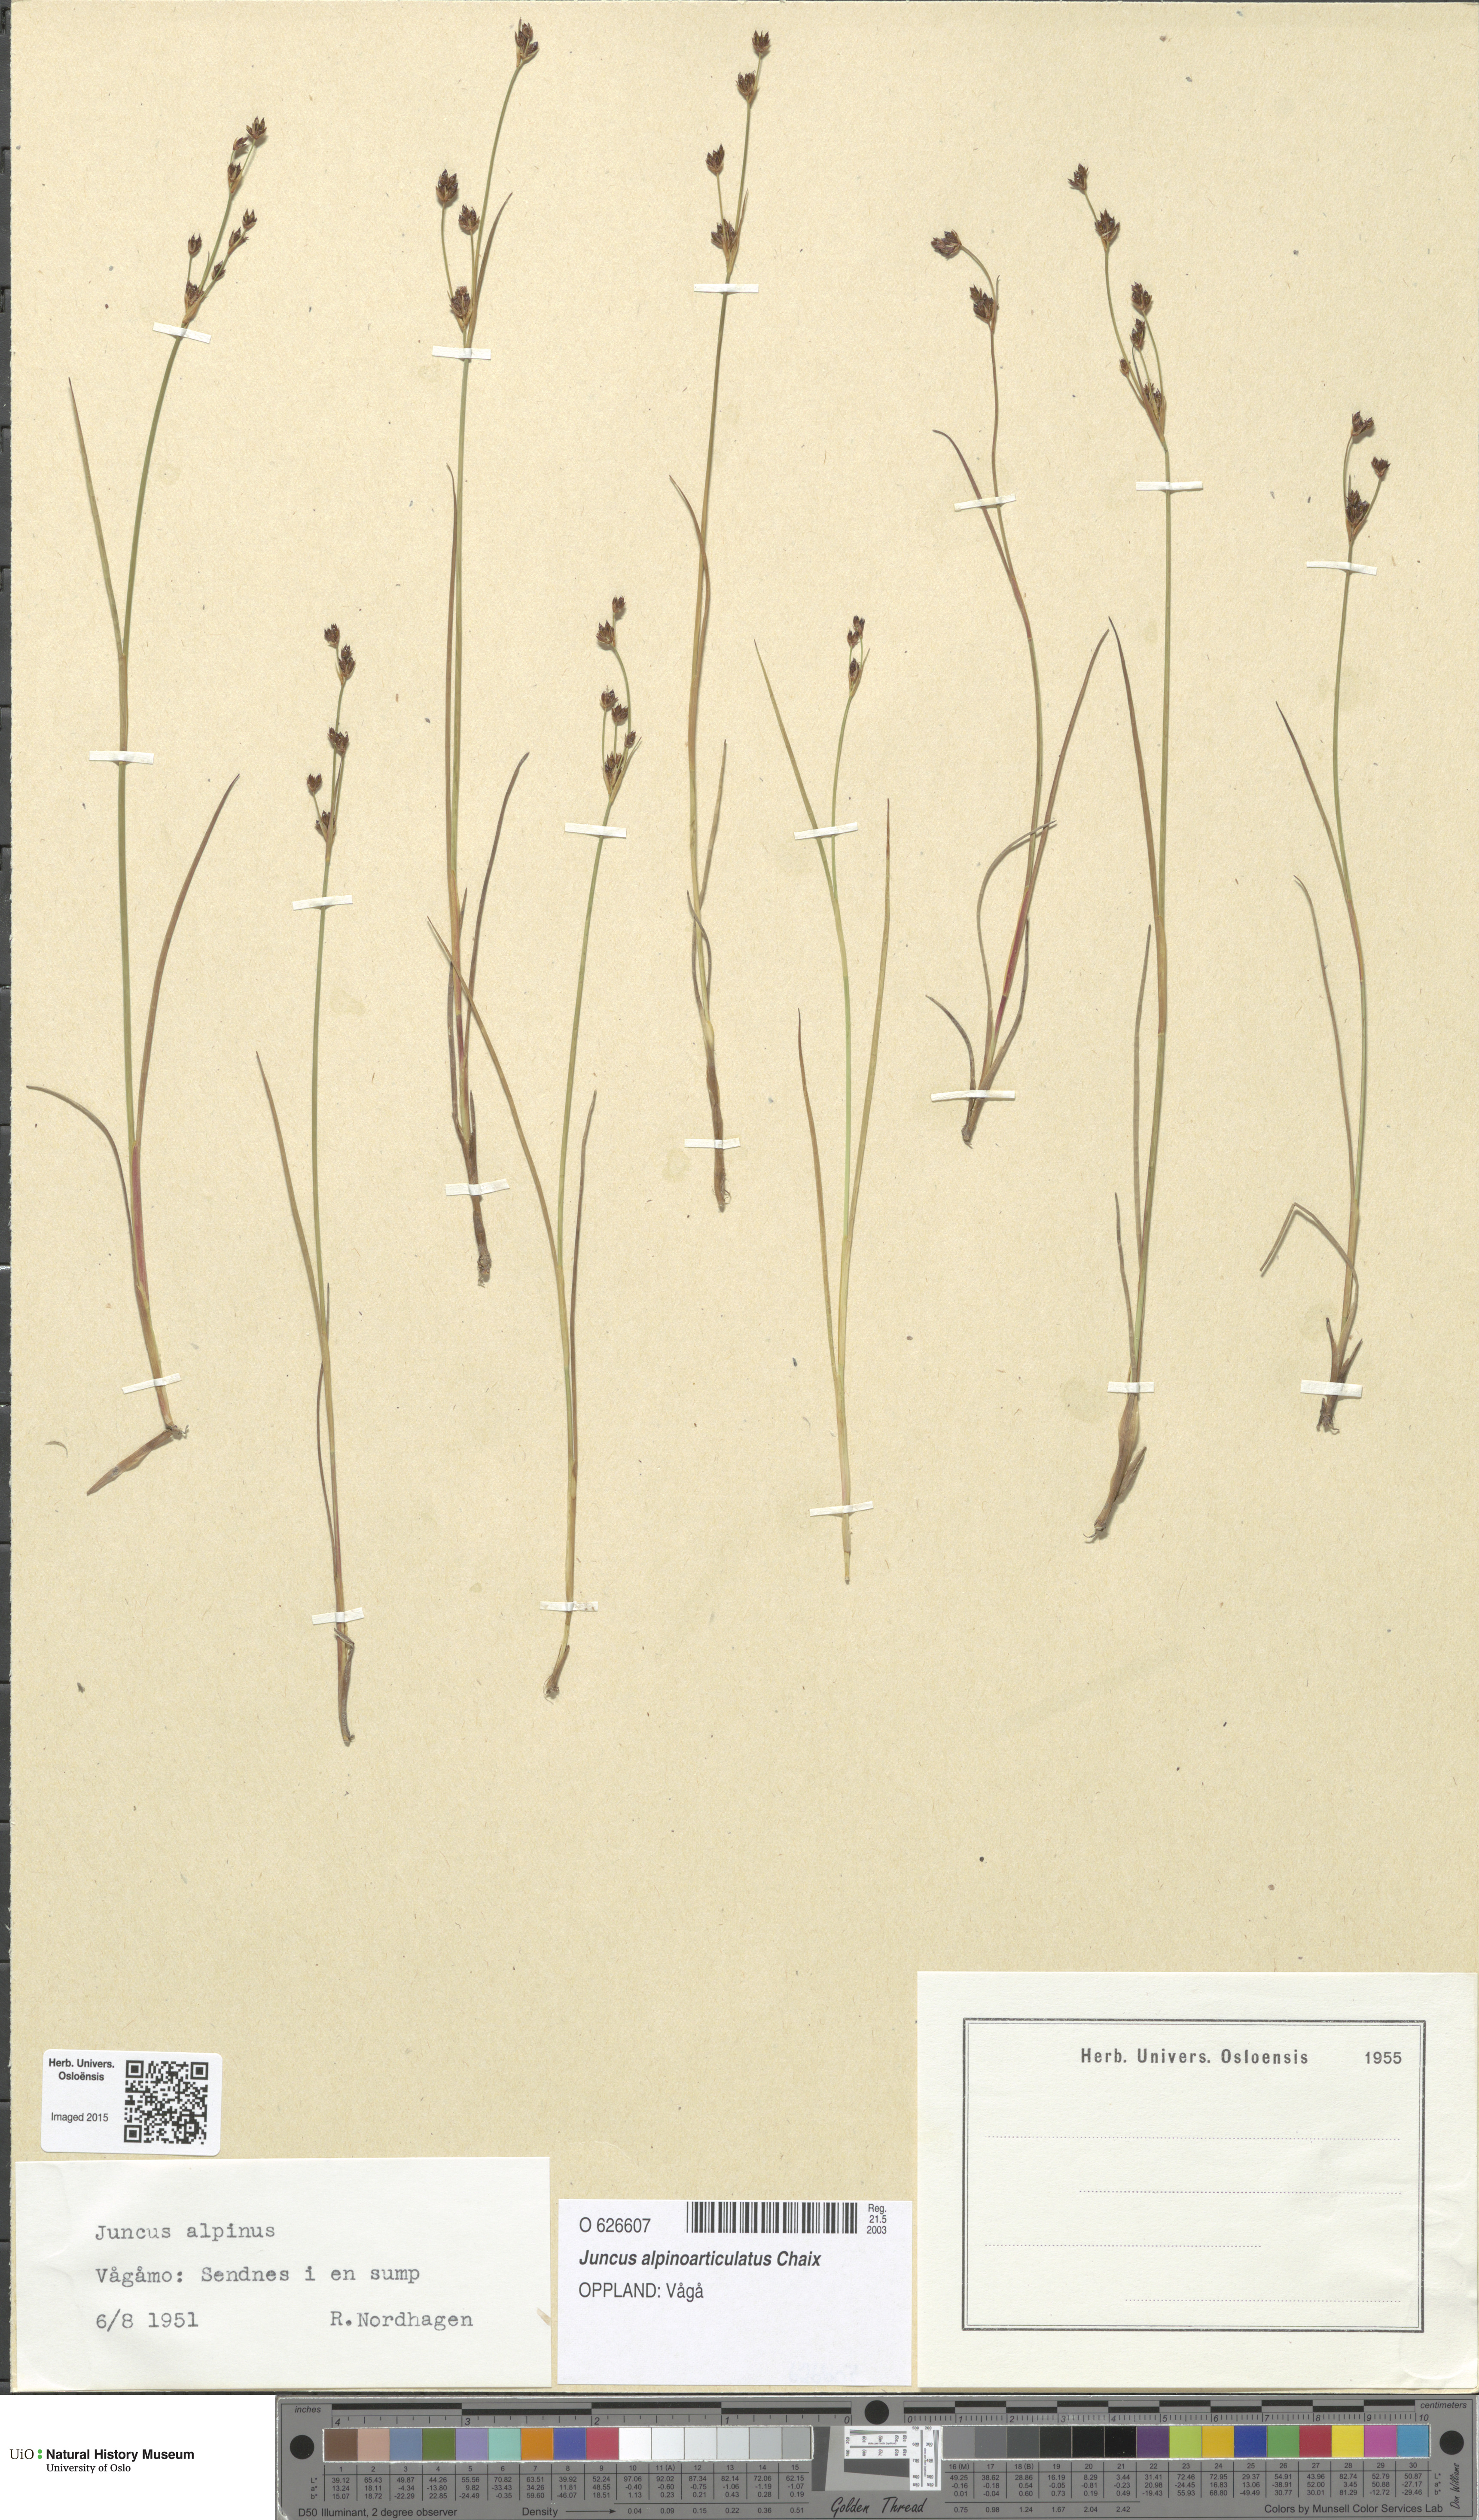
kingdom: Plantae
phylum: Tracheophyta
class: Liliopsida
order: Poales
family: Juncaceae
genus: Juncus
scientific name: Juncus alpinoarticulatus
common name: Alpine rush
